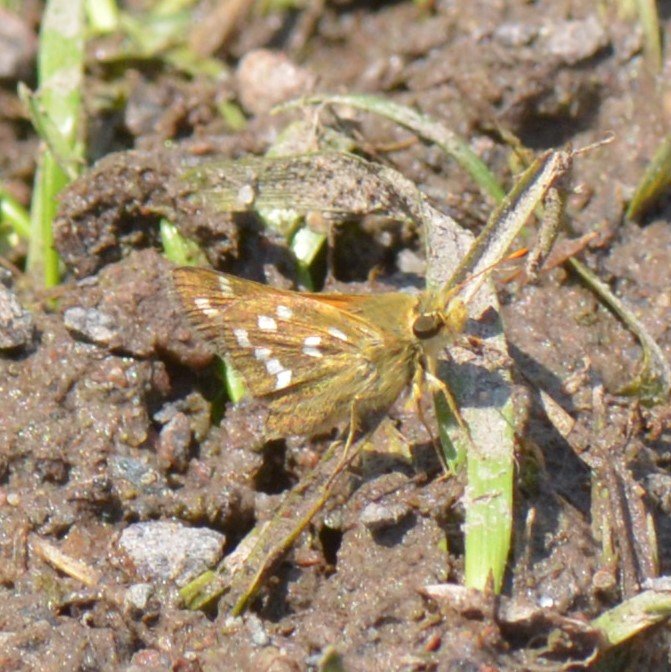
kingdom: Animalia
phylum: Arthropoda
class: Insecta
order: Lepidoptera
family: Hesperiidae
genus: Hesperia
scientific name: Hesperia comma
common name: Common Branded Skipper
